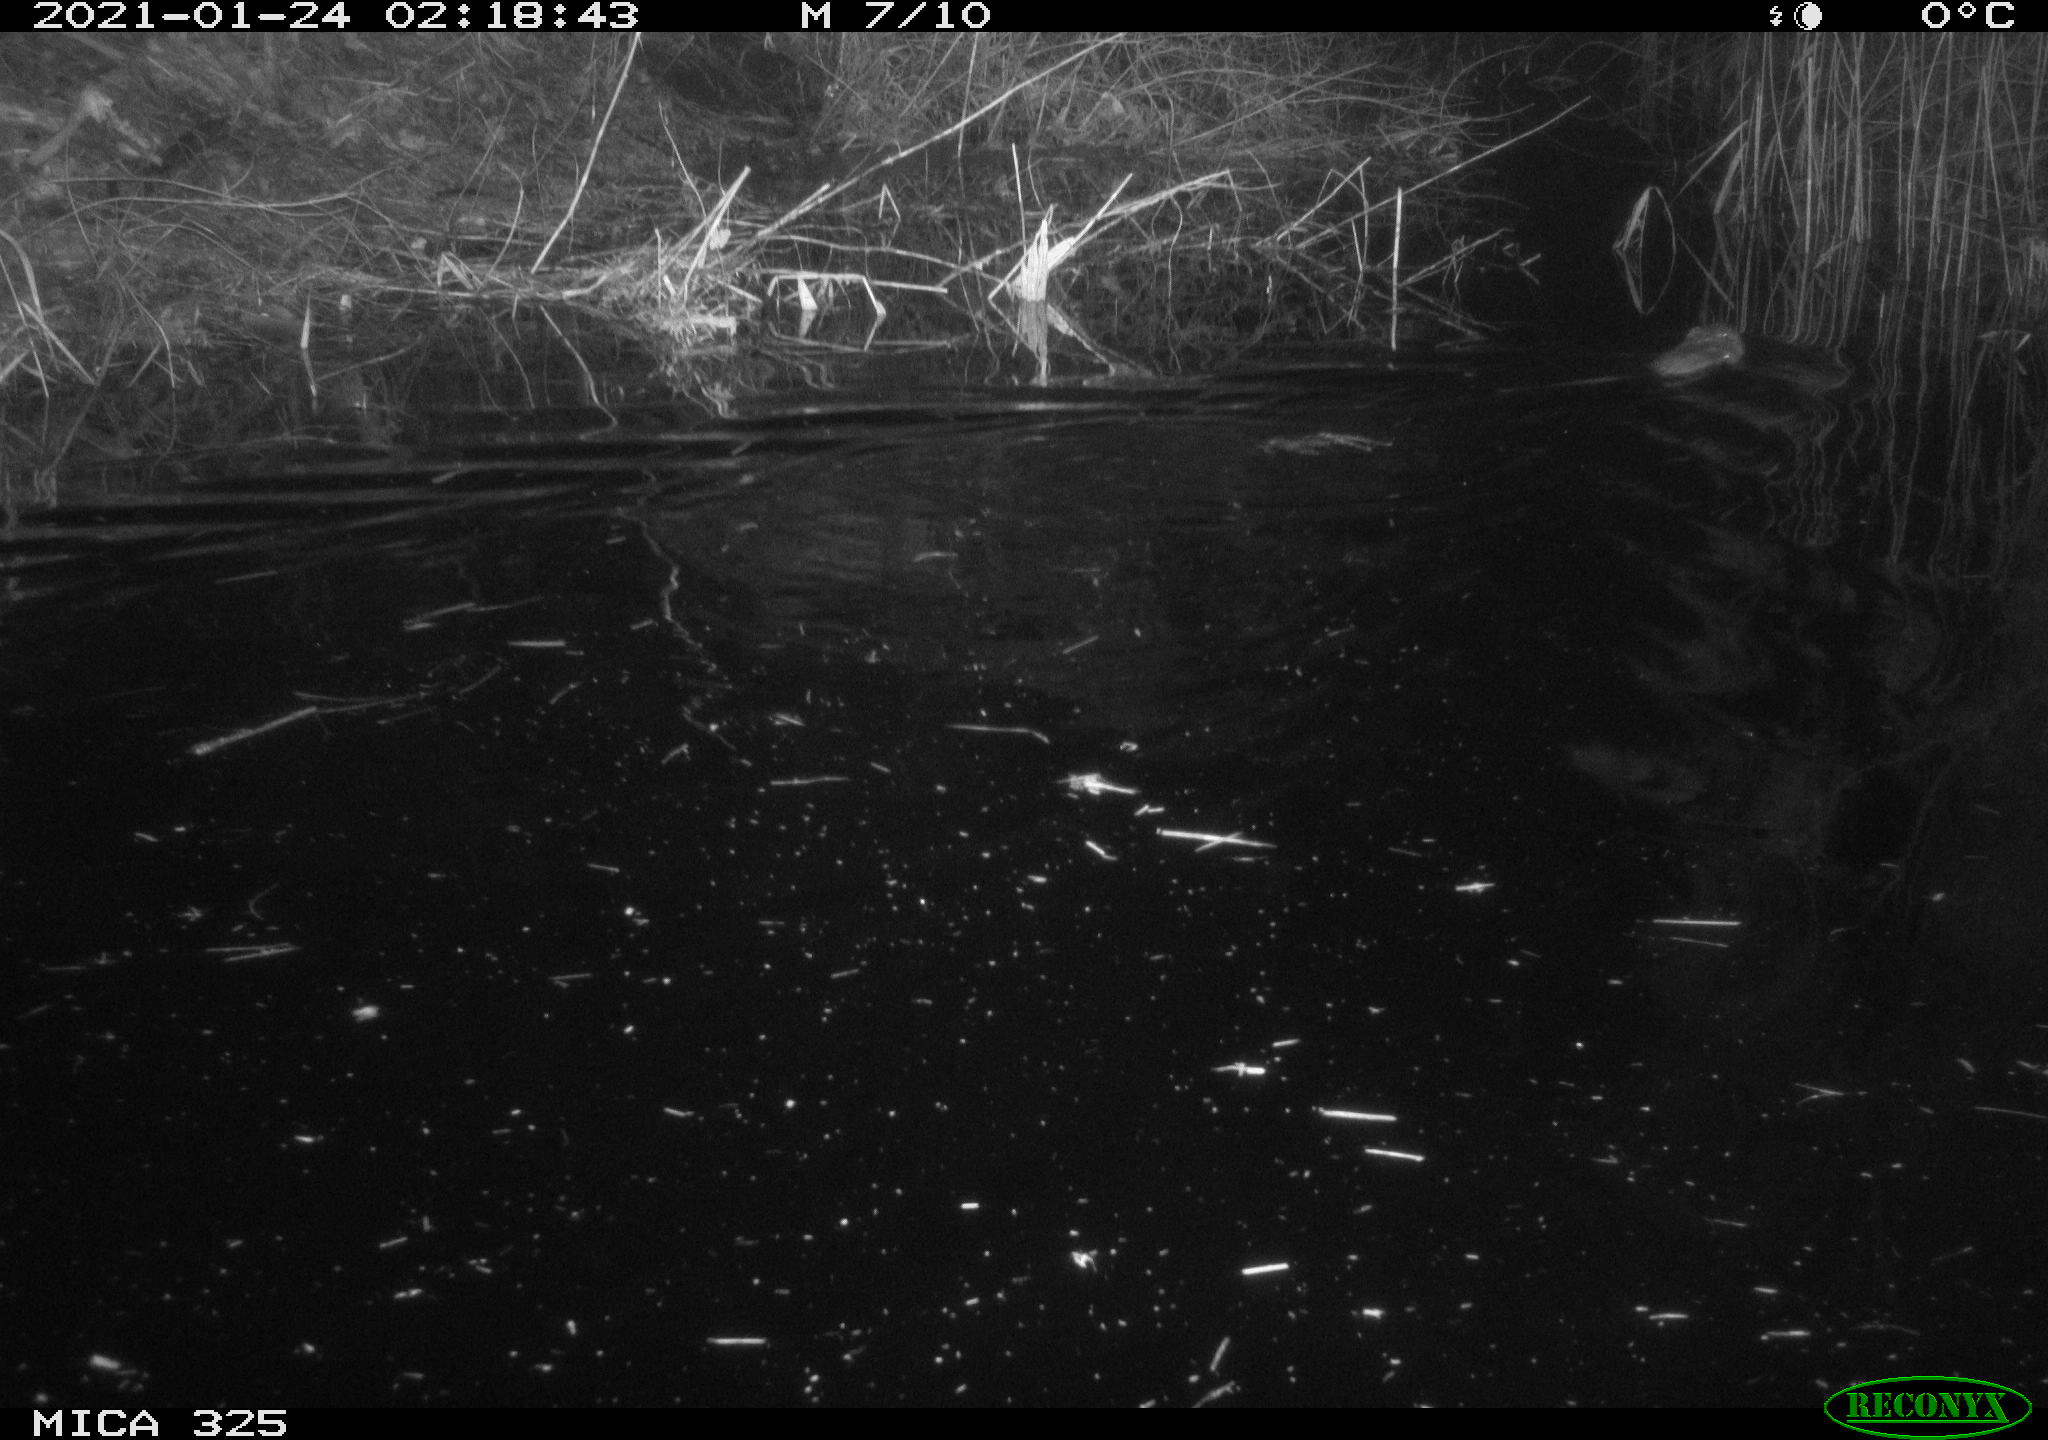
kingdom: Animalia
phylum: Chordata
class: Mammalia
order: Rodentia
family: Cricetidae
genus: Ondatra
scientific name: Ondatra zibethicus
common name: Muskrat
